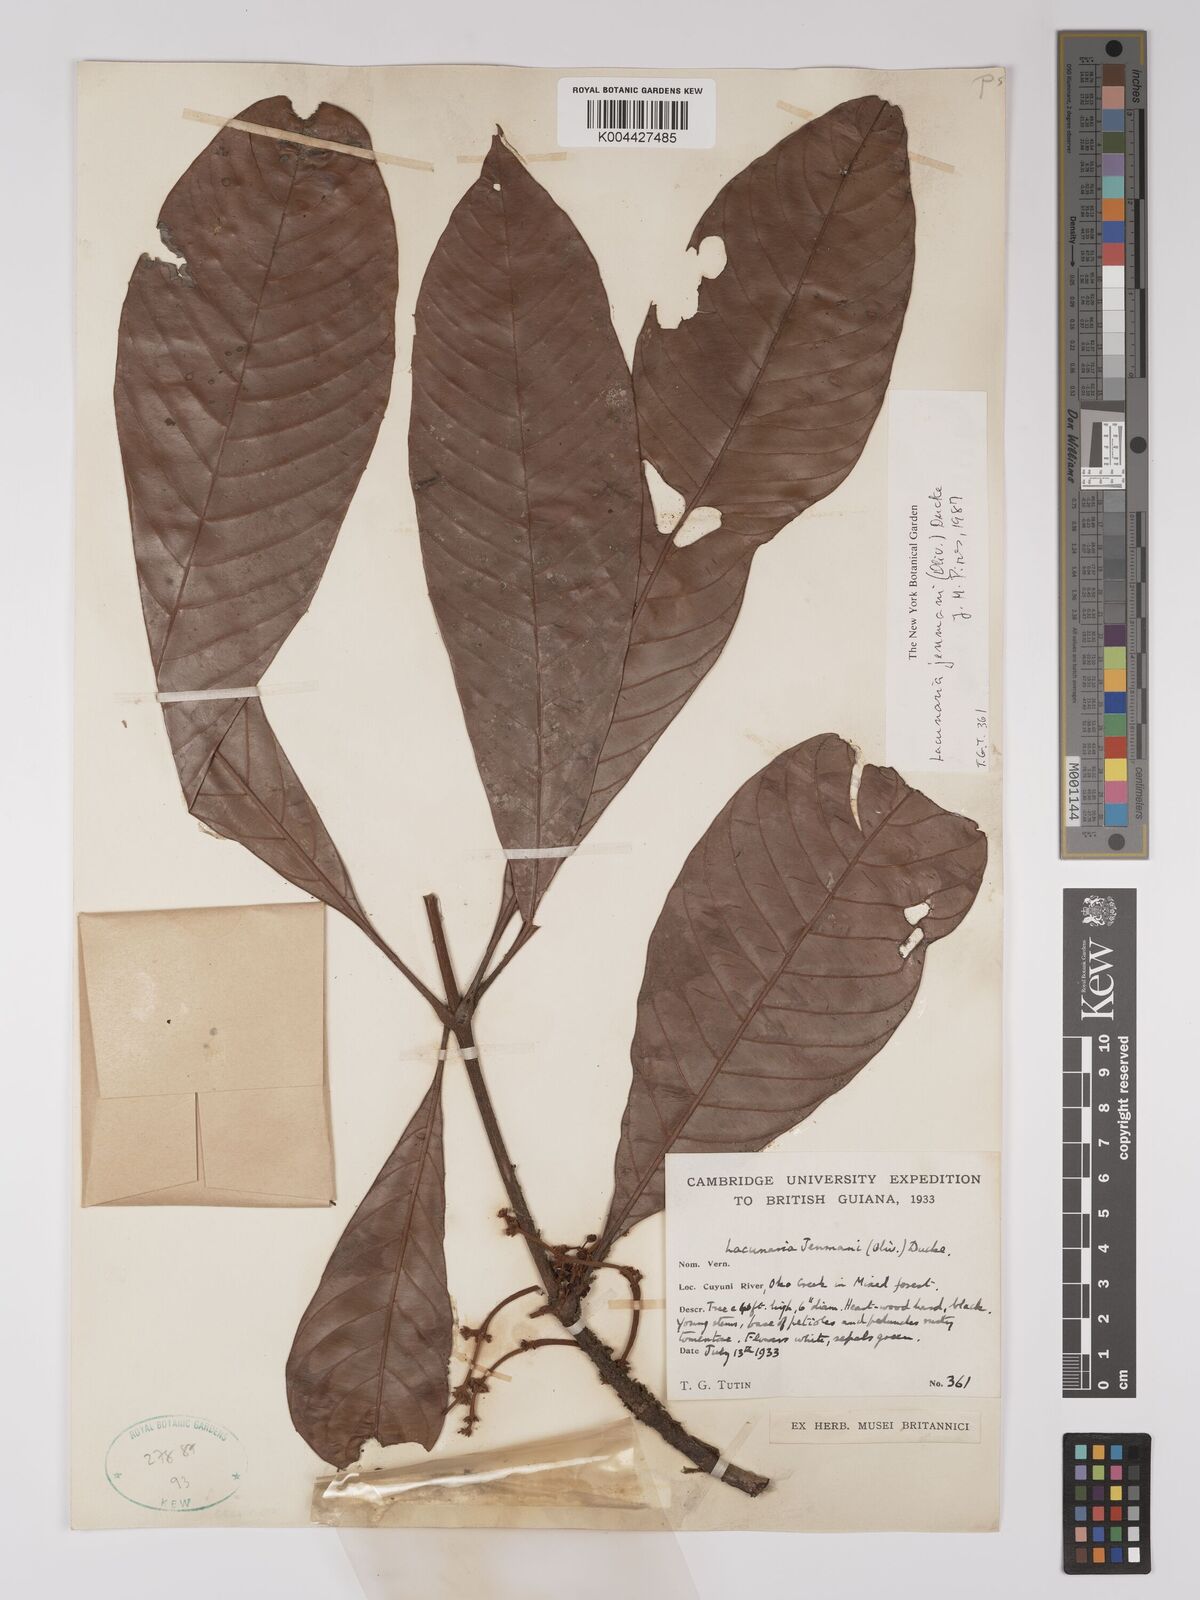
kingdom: Plantae
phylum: Tracheophyta
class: Magnoliopsida
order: Malpighiales
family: Quiinaceae
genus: Lacunaria
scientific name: Lacunaria jenmanii
